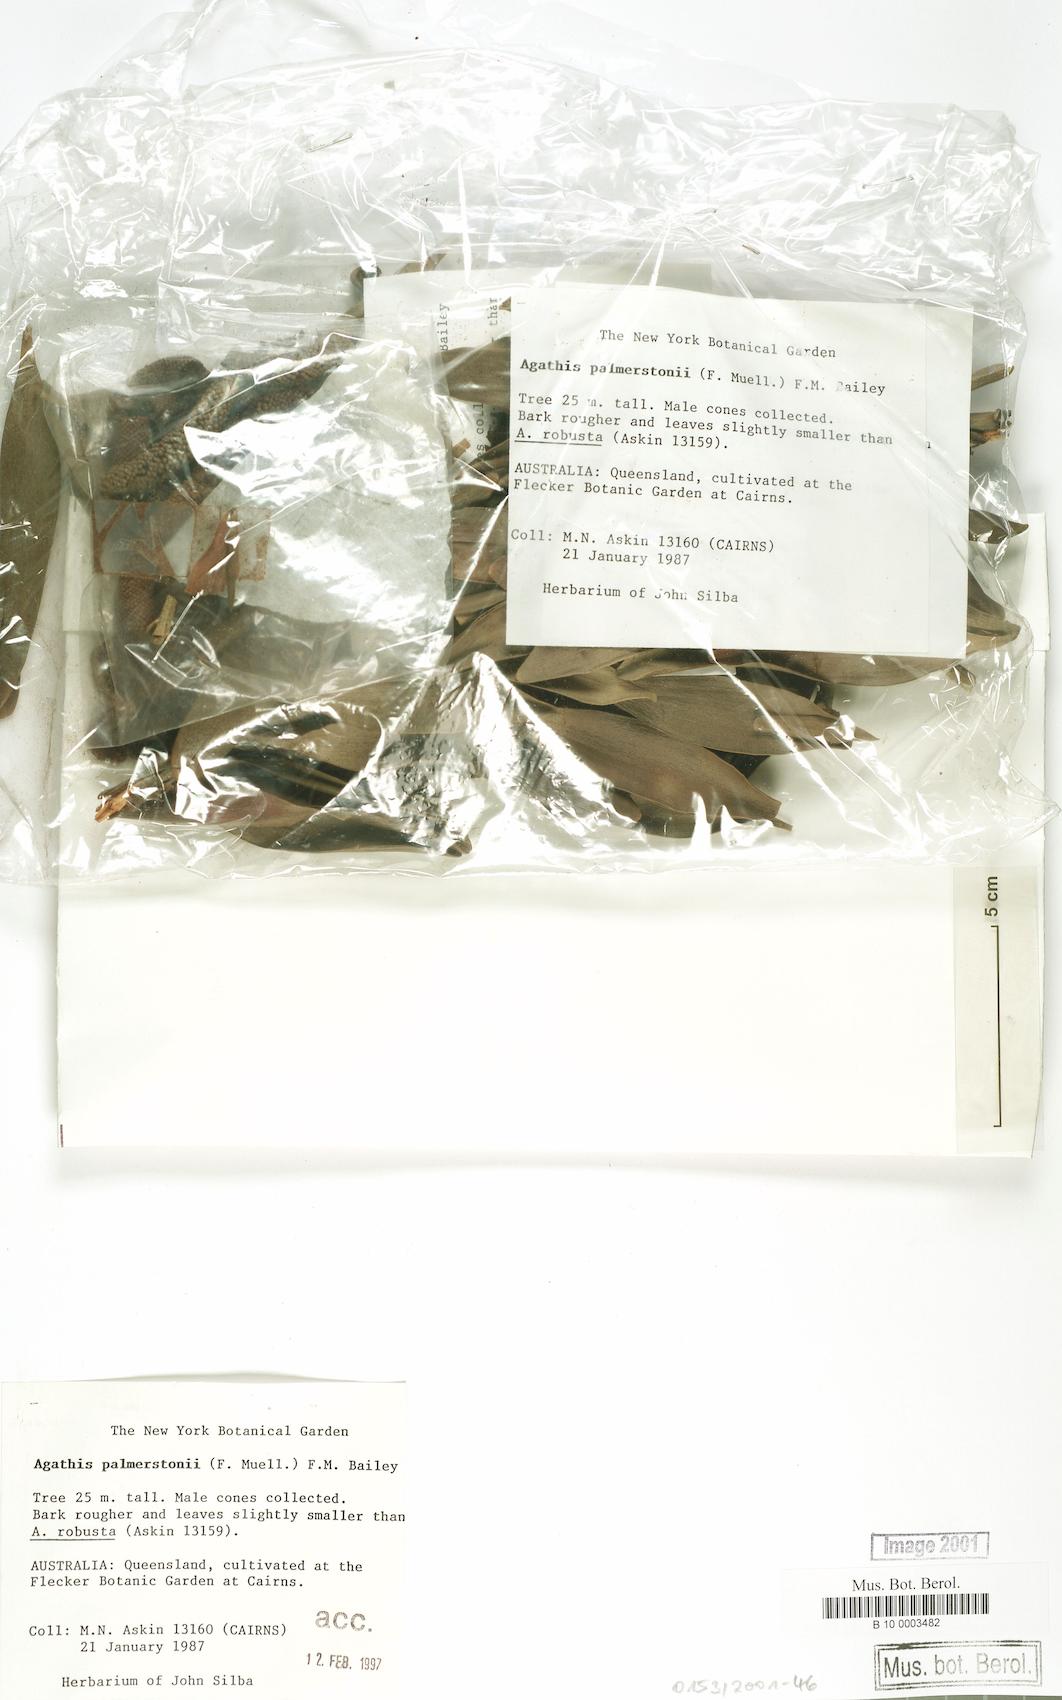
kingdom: Plantae
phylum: Tracheophyta
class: Pinopsida
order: Pinales
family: Araucariaceae
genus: Agathis
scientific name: Agathis robusta
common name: Australian-kauri
